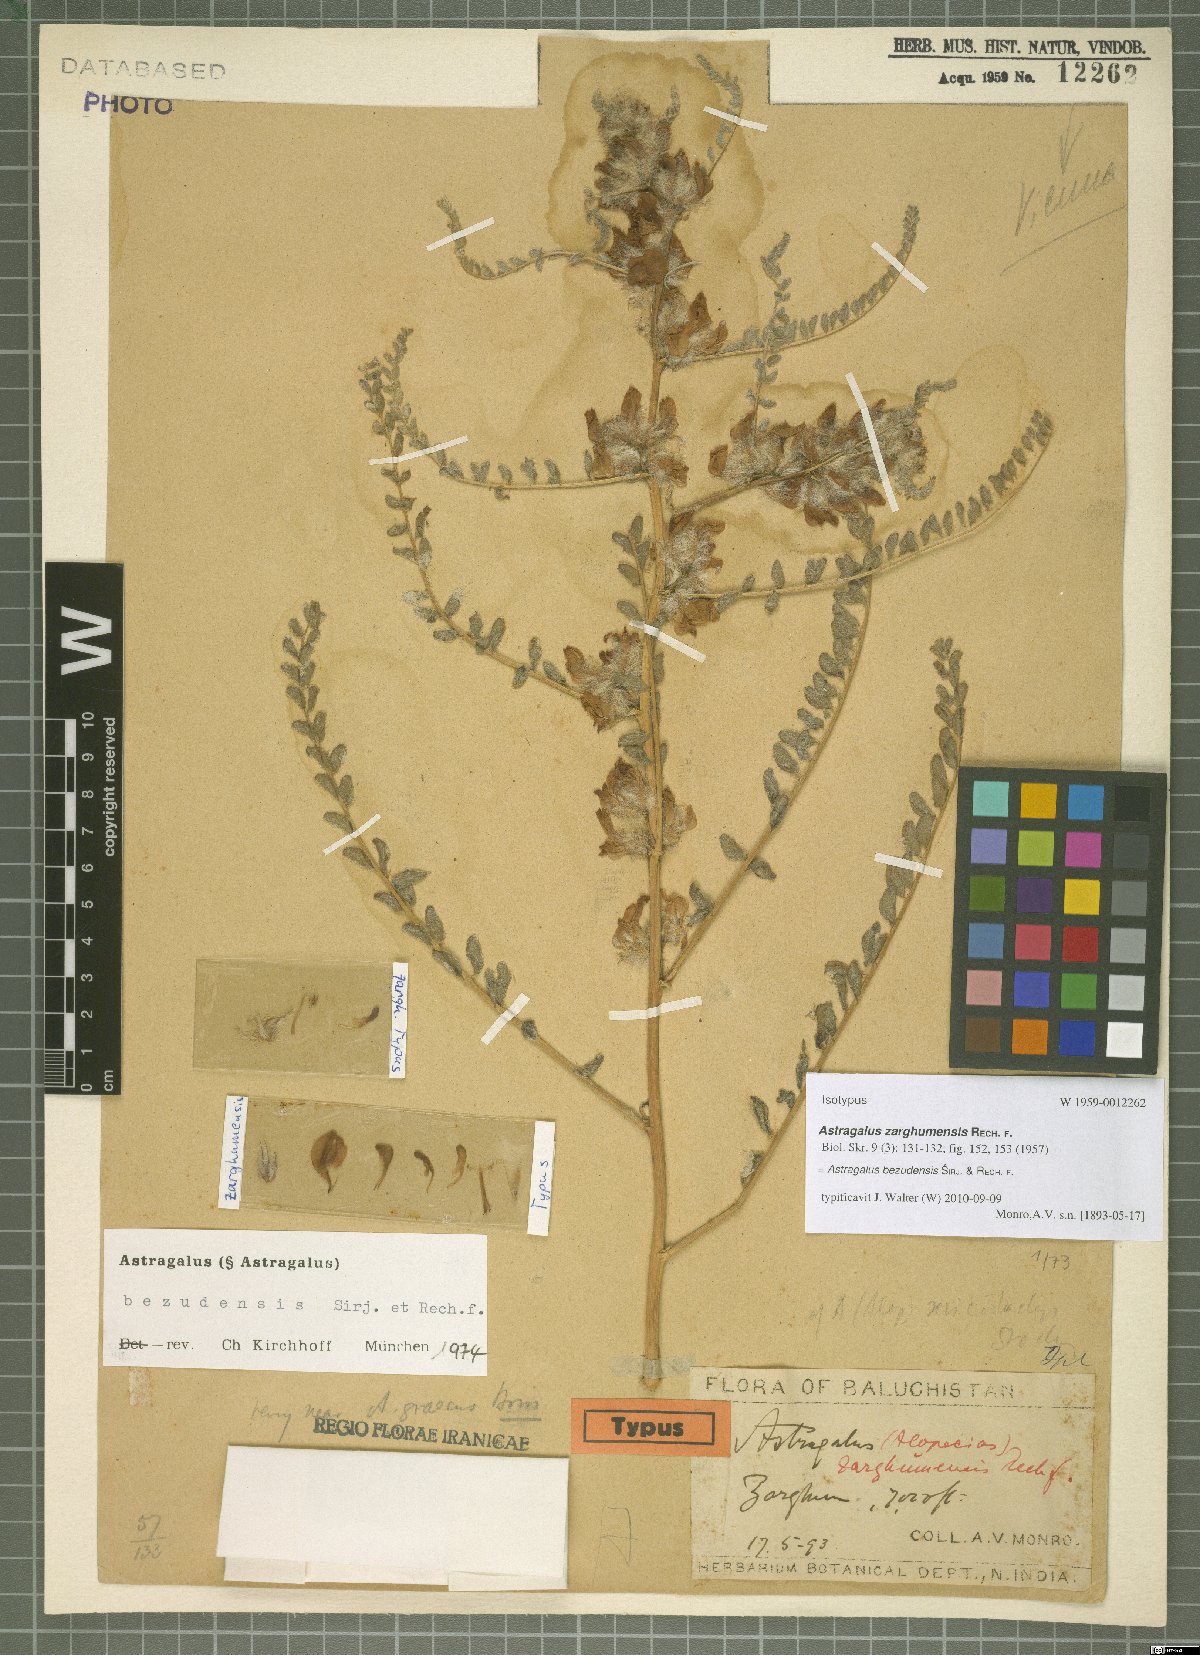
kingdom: Plantae
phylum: Tracheophyta
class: Magnoliopsida
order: Fabales
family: Fabaceae
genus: Astragalus
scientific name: Astragalus bezudensis
